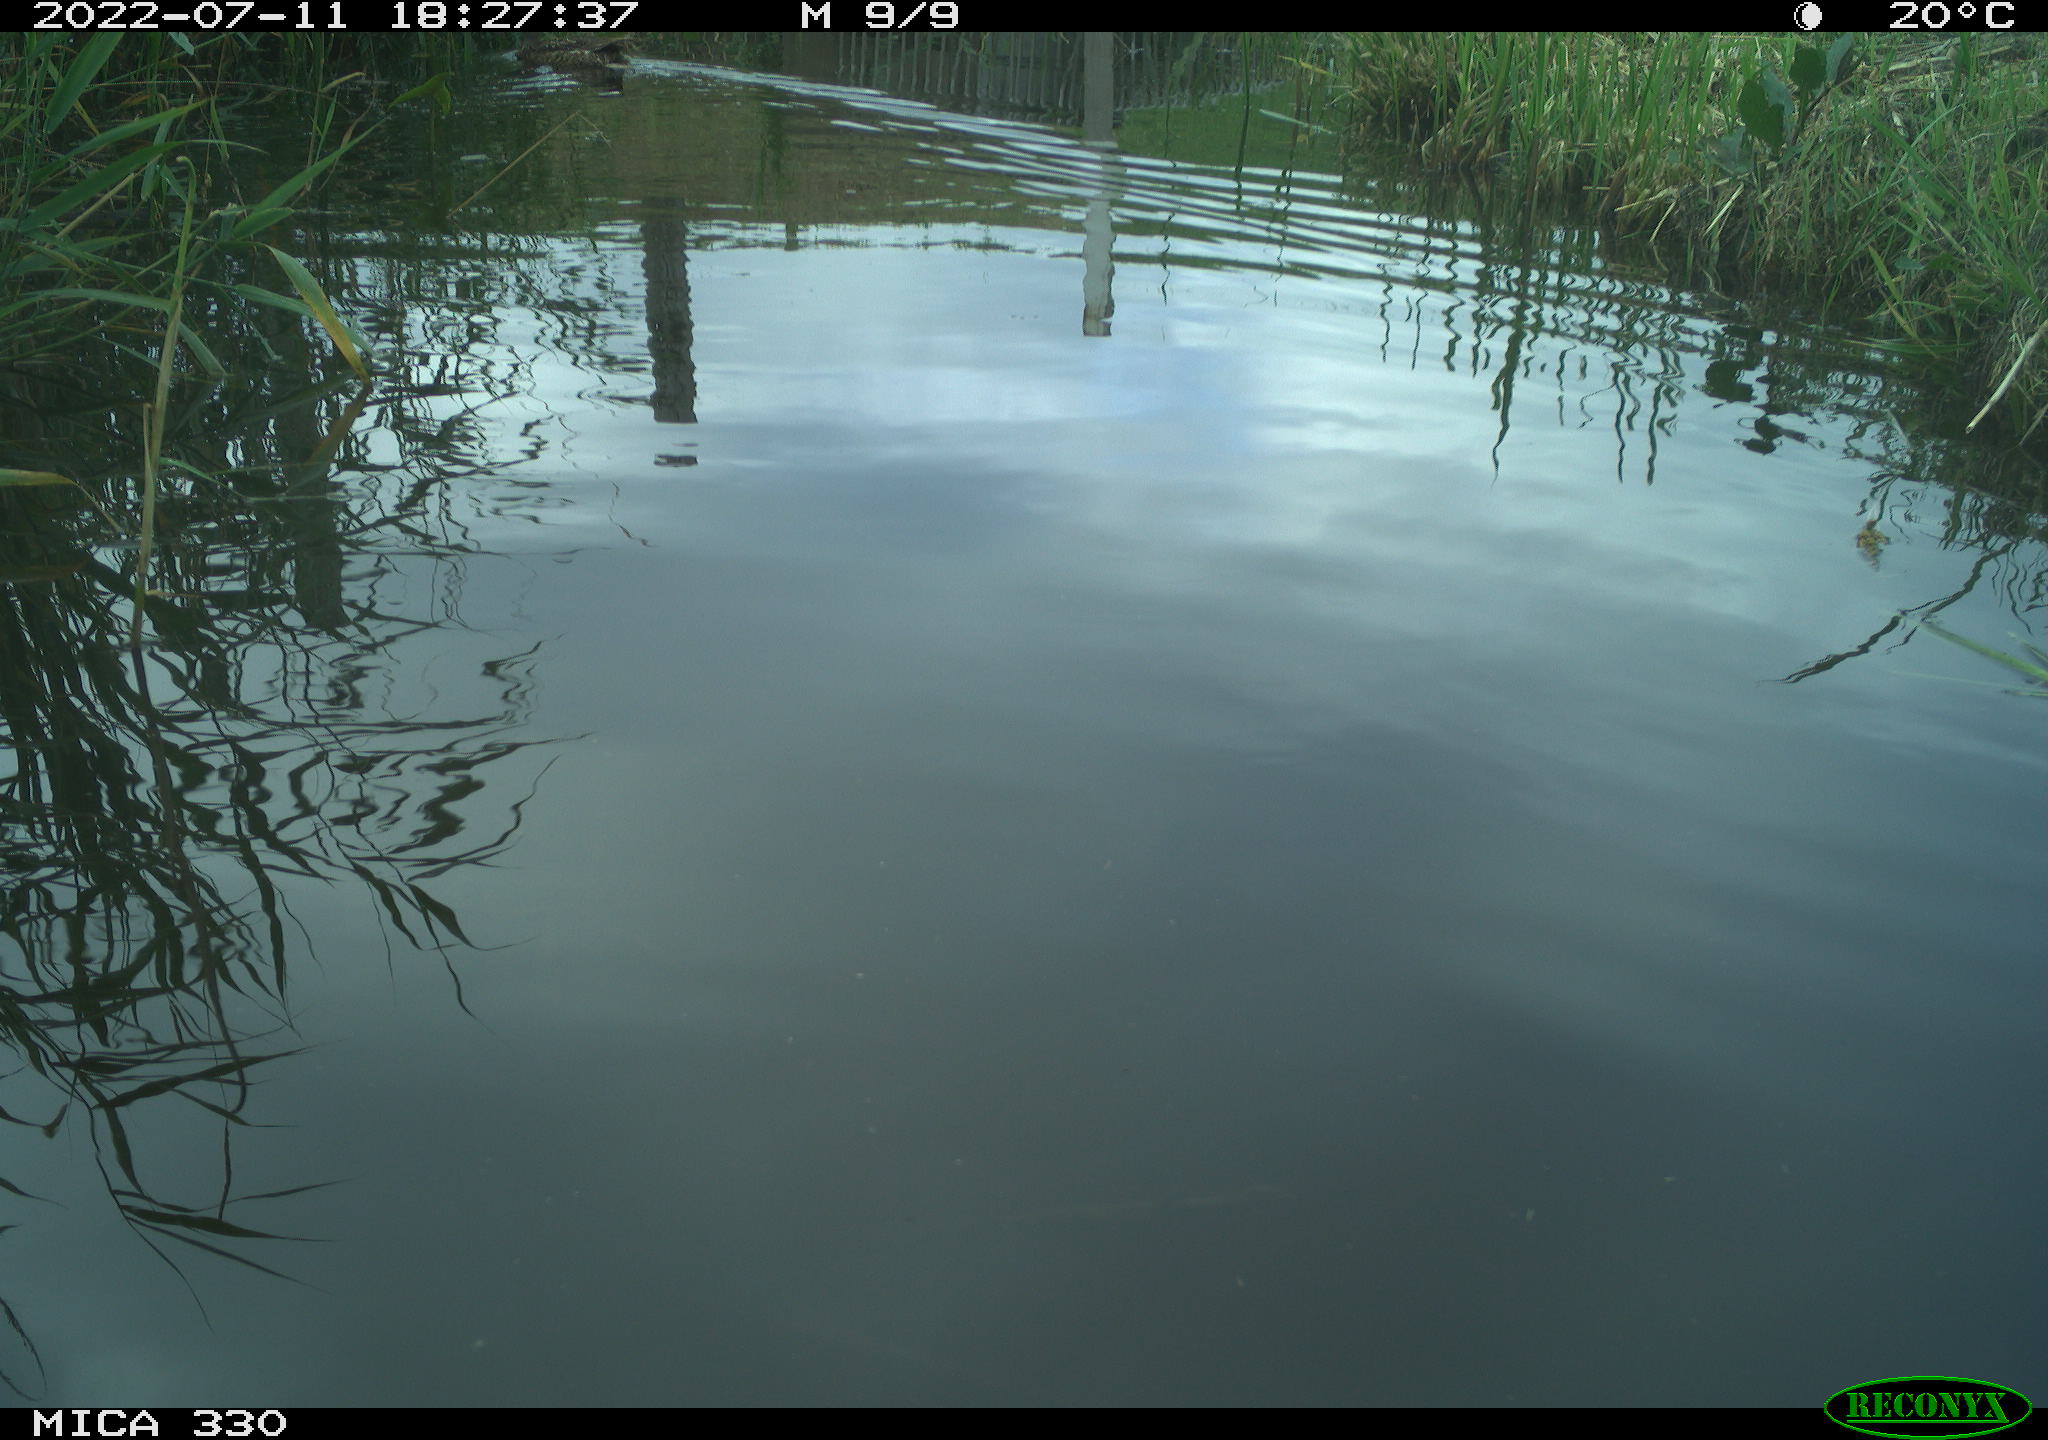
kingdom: Animalia
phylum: Chordata
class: Aves
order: Anseriformes
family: Anatidae
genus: Mareca
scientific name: Mareca strepera
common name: Gadwall
